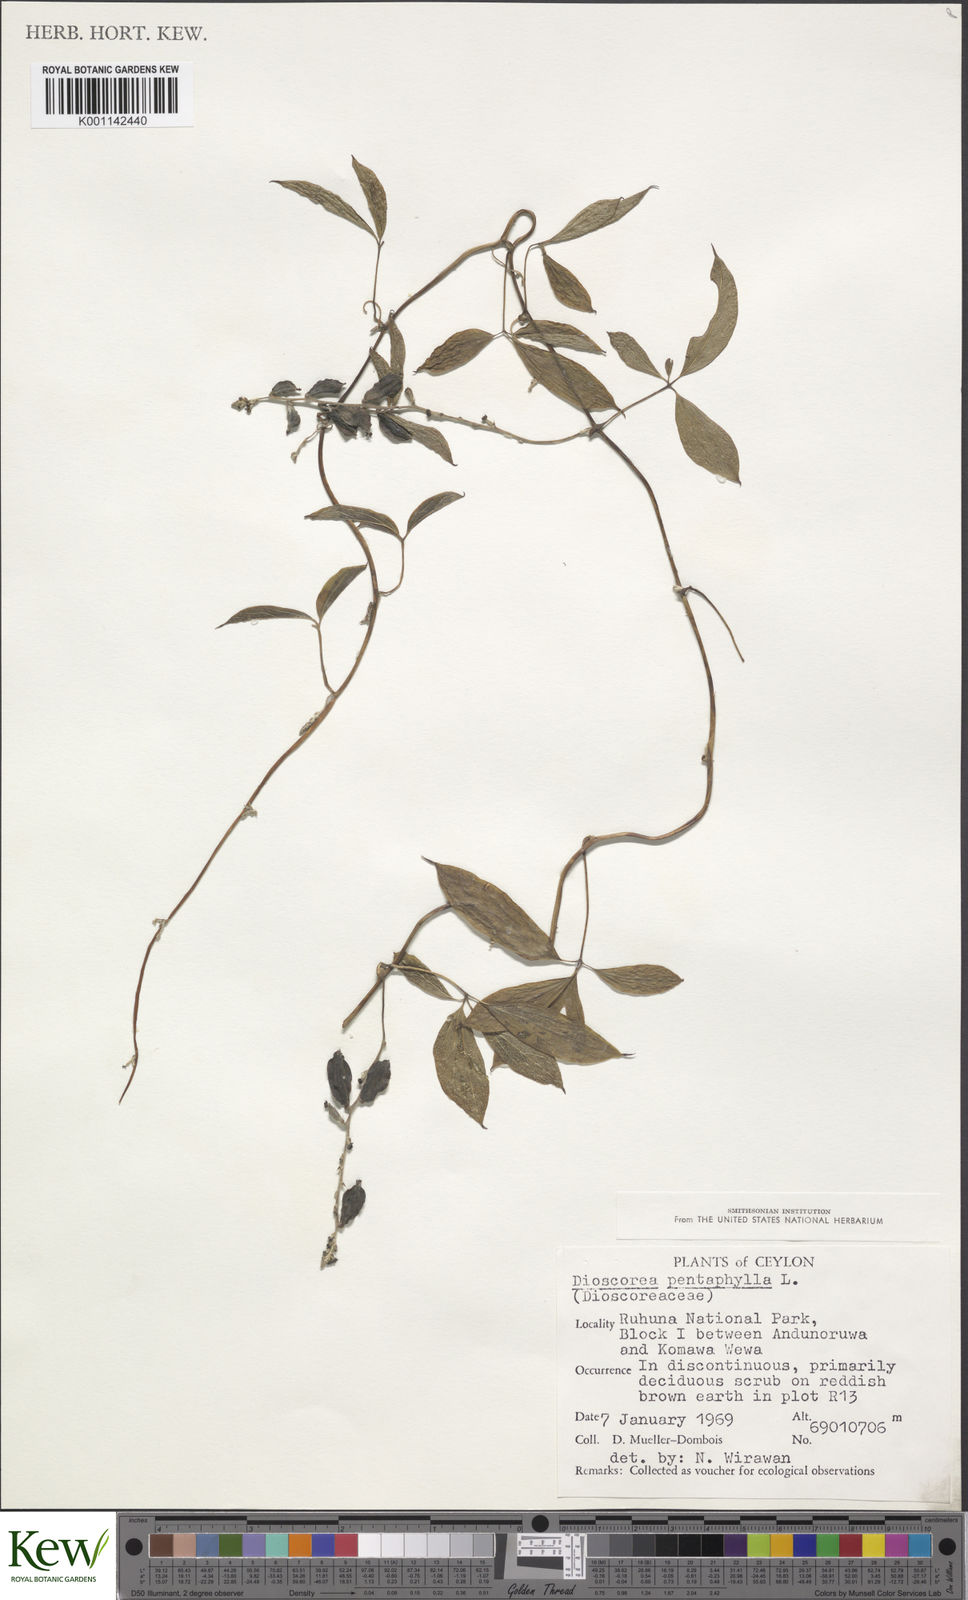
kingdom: Plantae
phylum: Tracheophyta
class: Liliopsida
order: Dioscoreales
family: Dioscoreaceae
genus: Dioscorea
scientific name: Dioscorea pentaphylla
